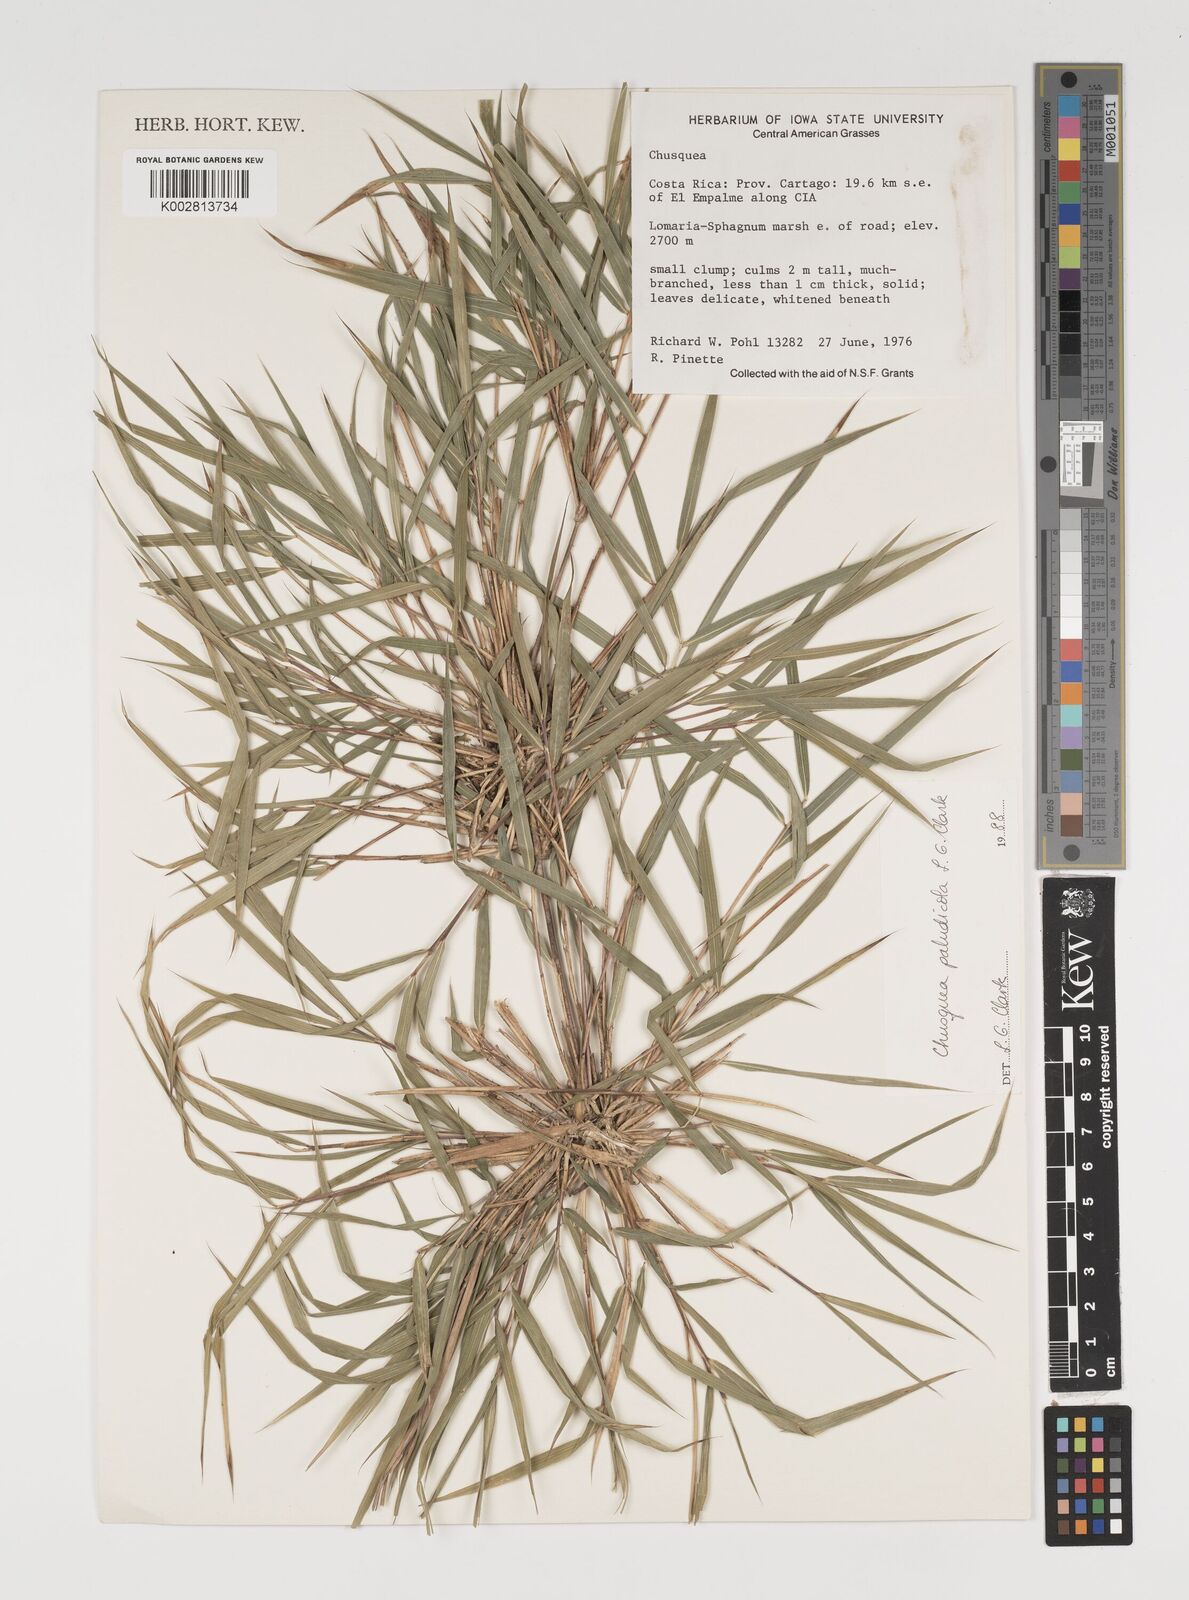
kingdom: Plantae
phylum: Tracheophyta
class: Liliopsida
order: Poales
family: Poaceae
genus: Chusquea
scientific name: Chusquea paludicola
